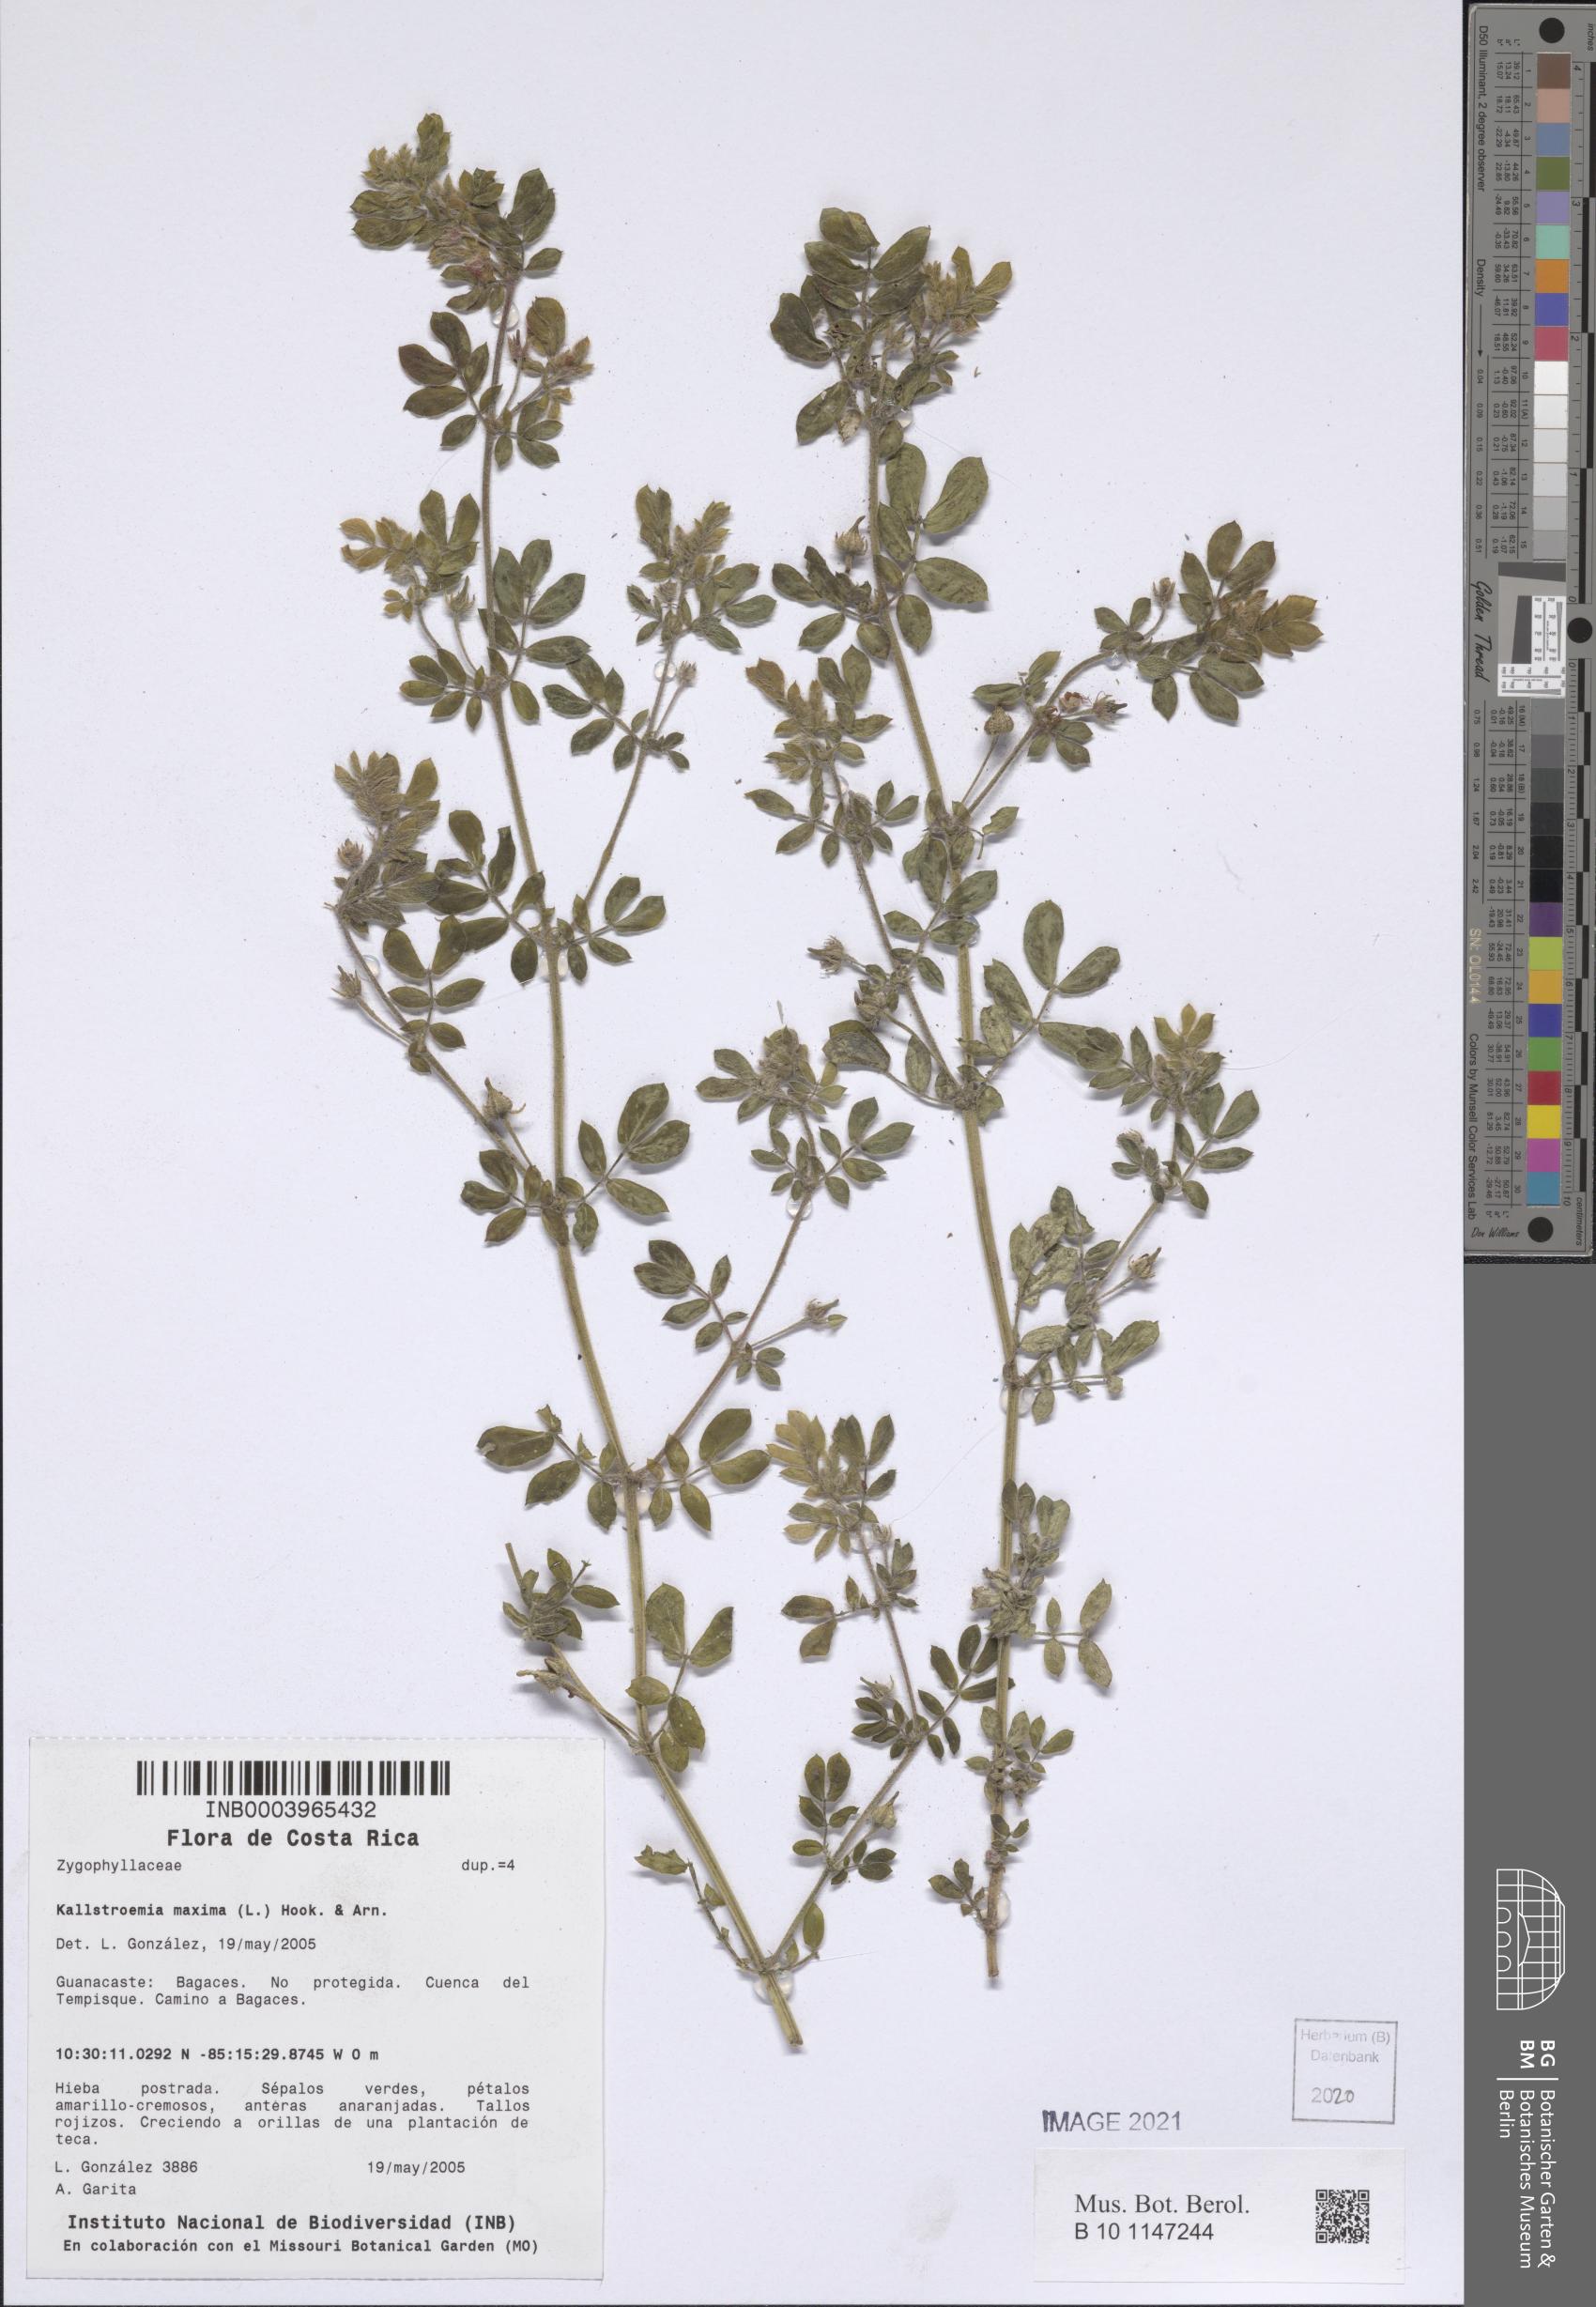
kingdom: Plantae
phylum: Tracheophyta
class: Magnoliopsida
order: Zygophyllales
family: Zygophyllaceae
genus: Kallstroemia
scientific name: Kallstroemia maxima
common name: Big caltropa
